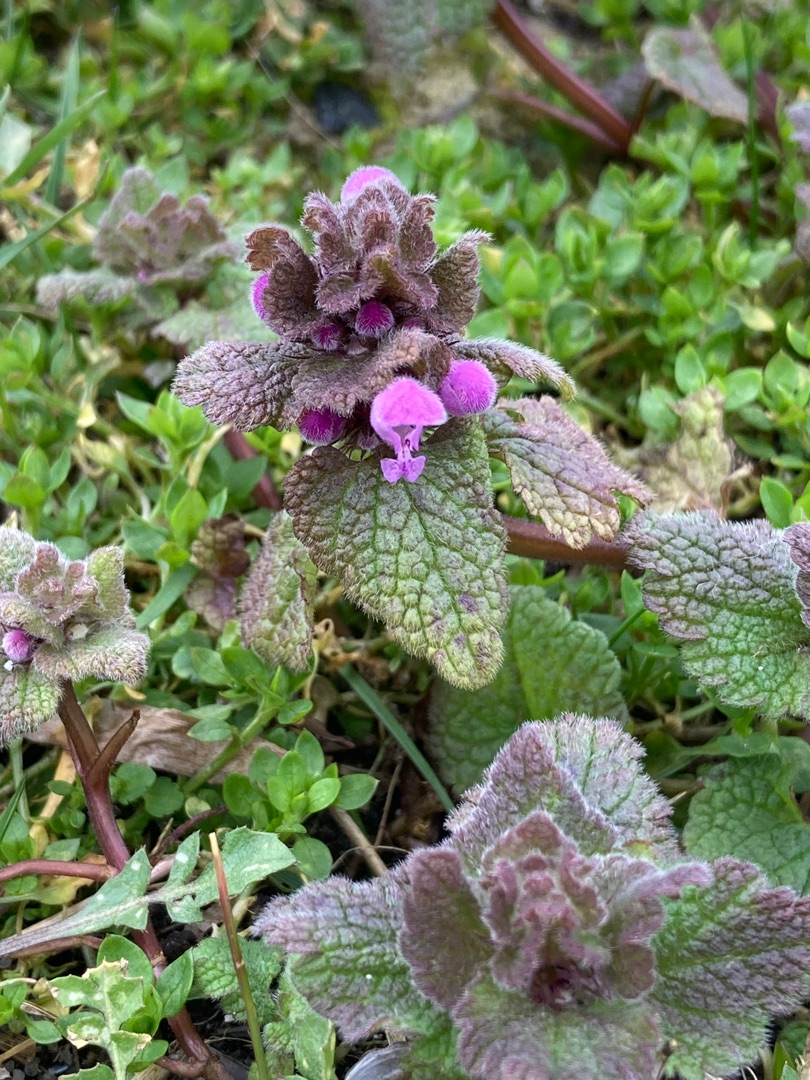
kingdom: Plantae
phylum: Tracheophyta
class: Magnoliopsida
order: Lamiales
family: Lamiaceae
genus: Lamium
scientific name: Lamium purpureum
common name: Rød tvetand
